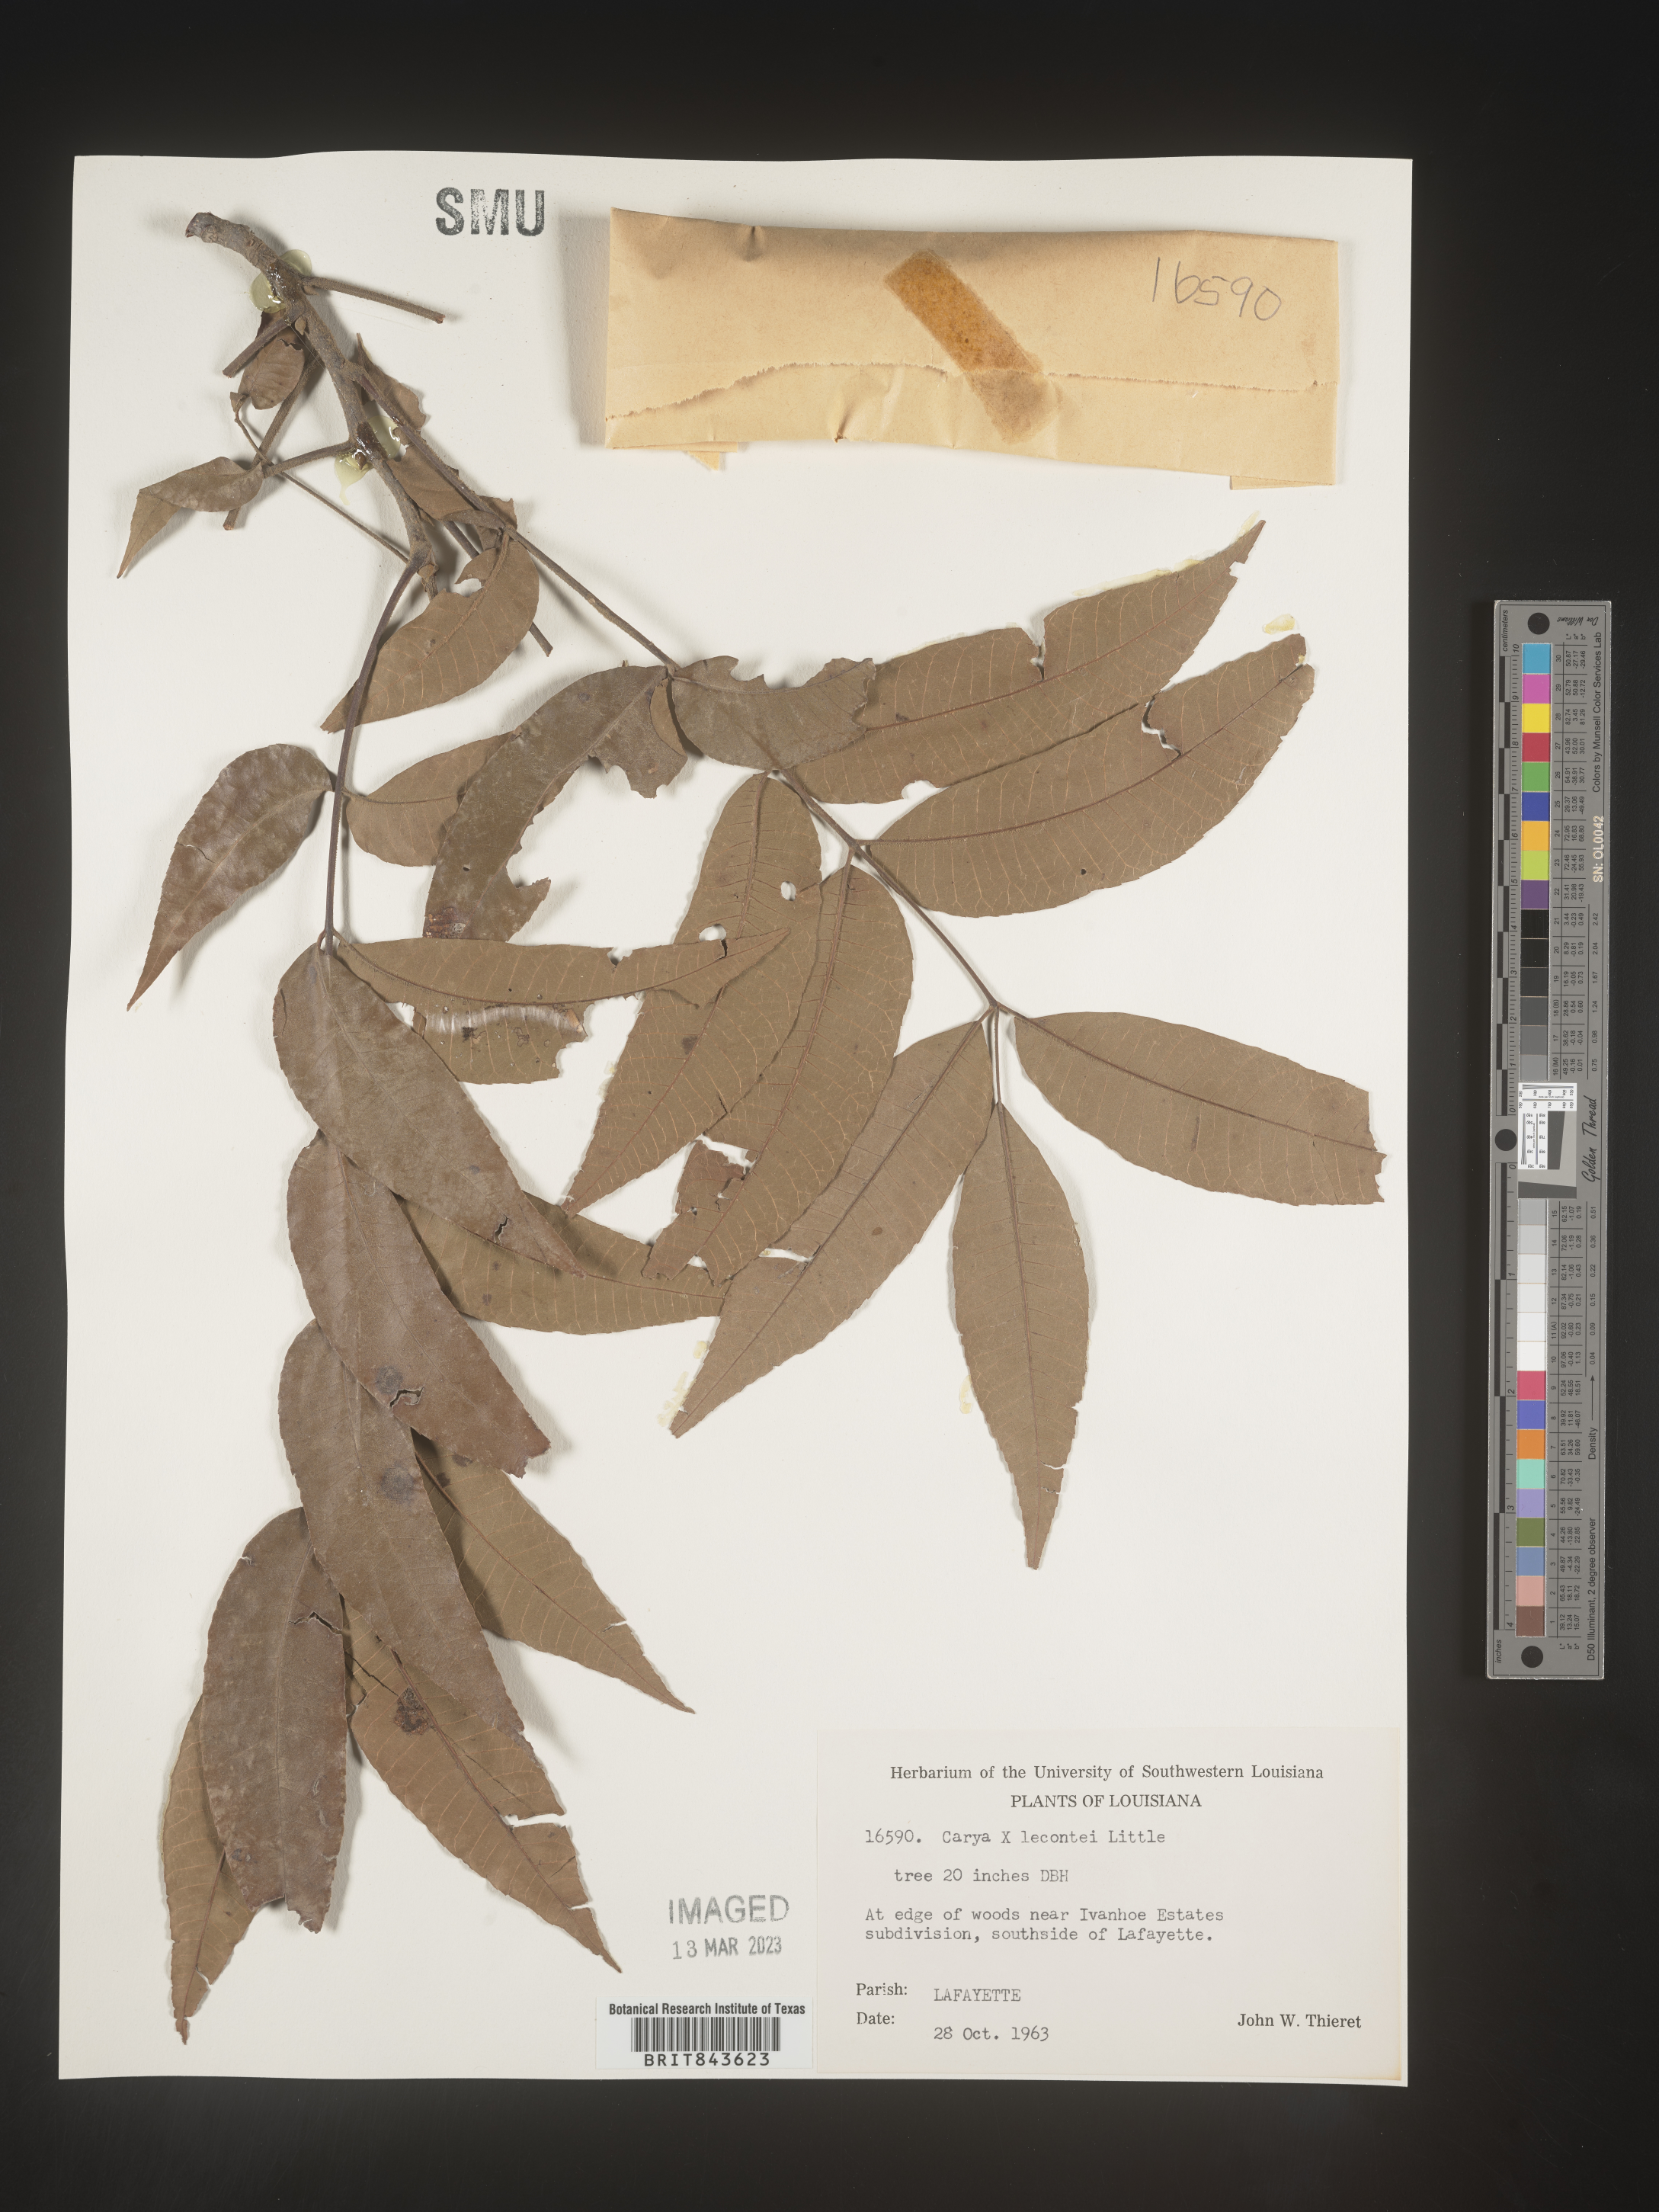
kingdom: Plantae
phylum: Tracheophyta
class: Magnoliopsida
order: Fagales
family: Juglandaceae
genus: Carya
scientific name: Carya
